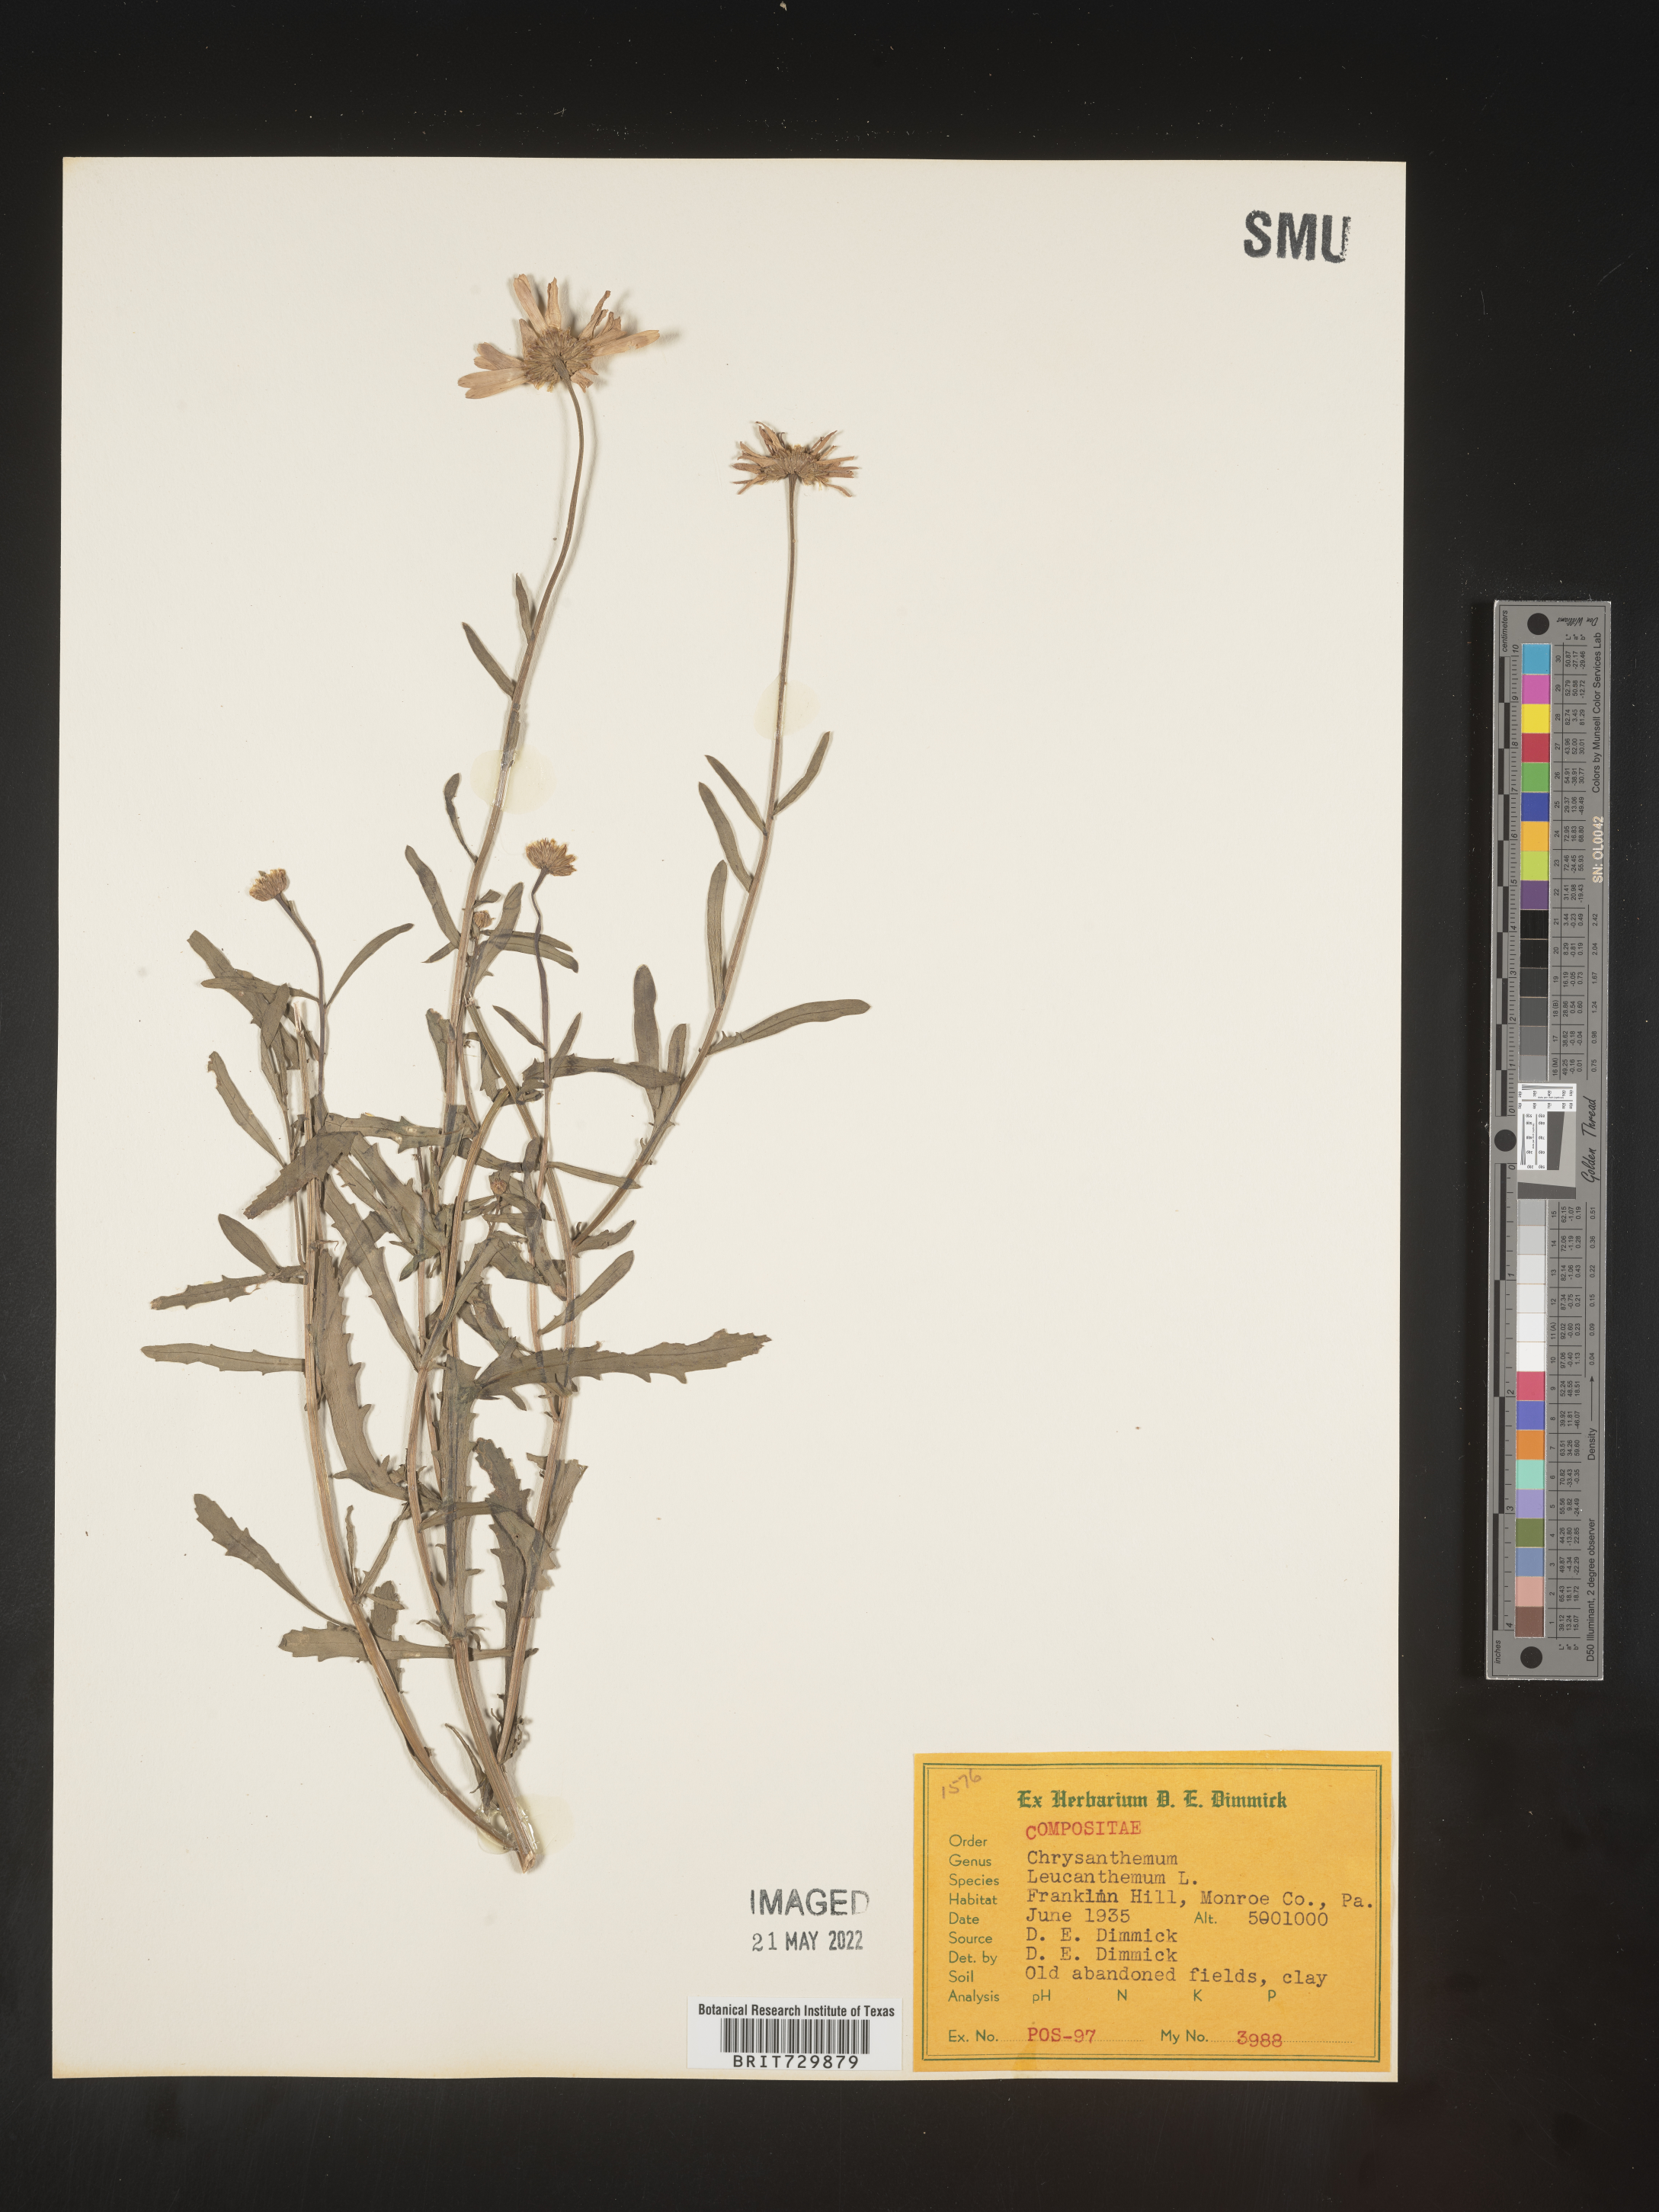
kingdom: Plantae
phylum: Tracheophyta
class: Magnoliopsida
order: Asterales
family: Asteraceae
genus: Leucanthemum
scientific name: Leucanthemum vulgare
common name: Oxeye daisy
